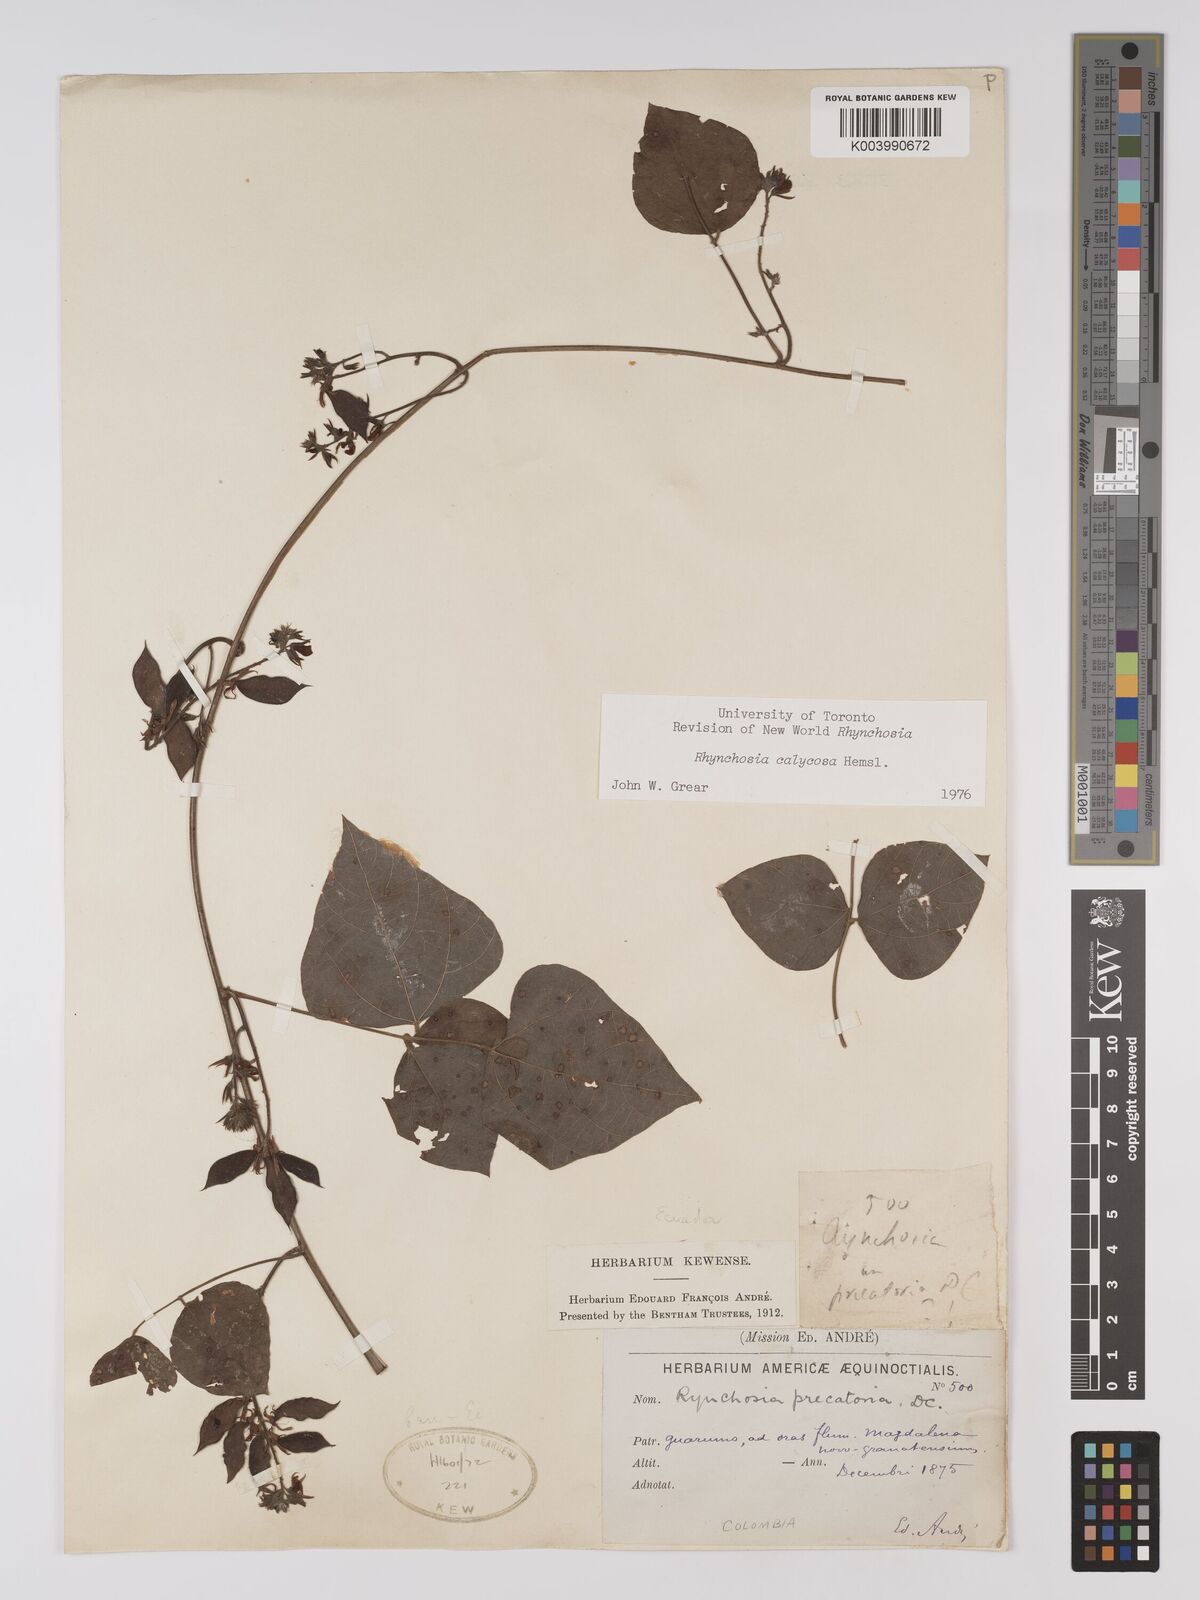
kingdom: Plantae
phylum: Tracheophyta
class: Magnoliopsida
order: Fabales
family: Fabaceae
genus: Rhynchosia
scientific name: Rhynchosia calycosa
